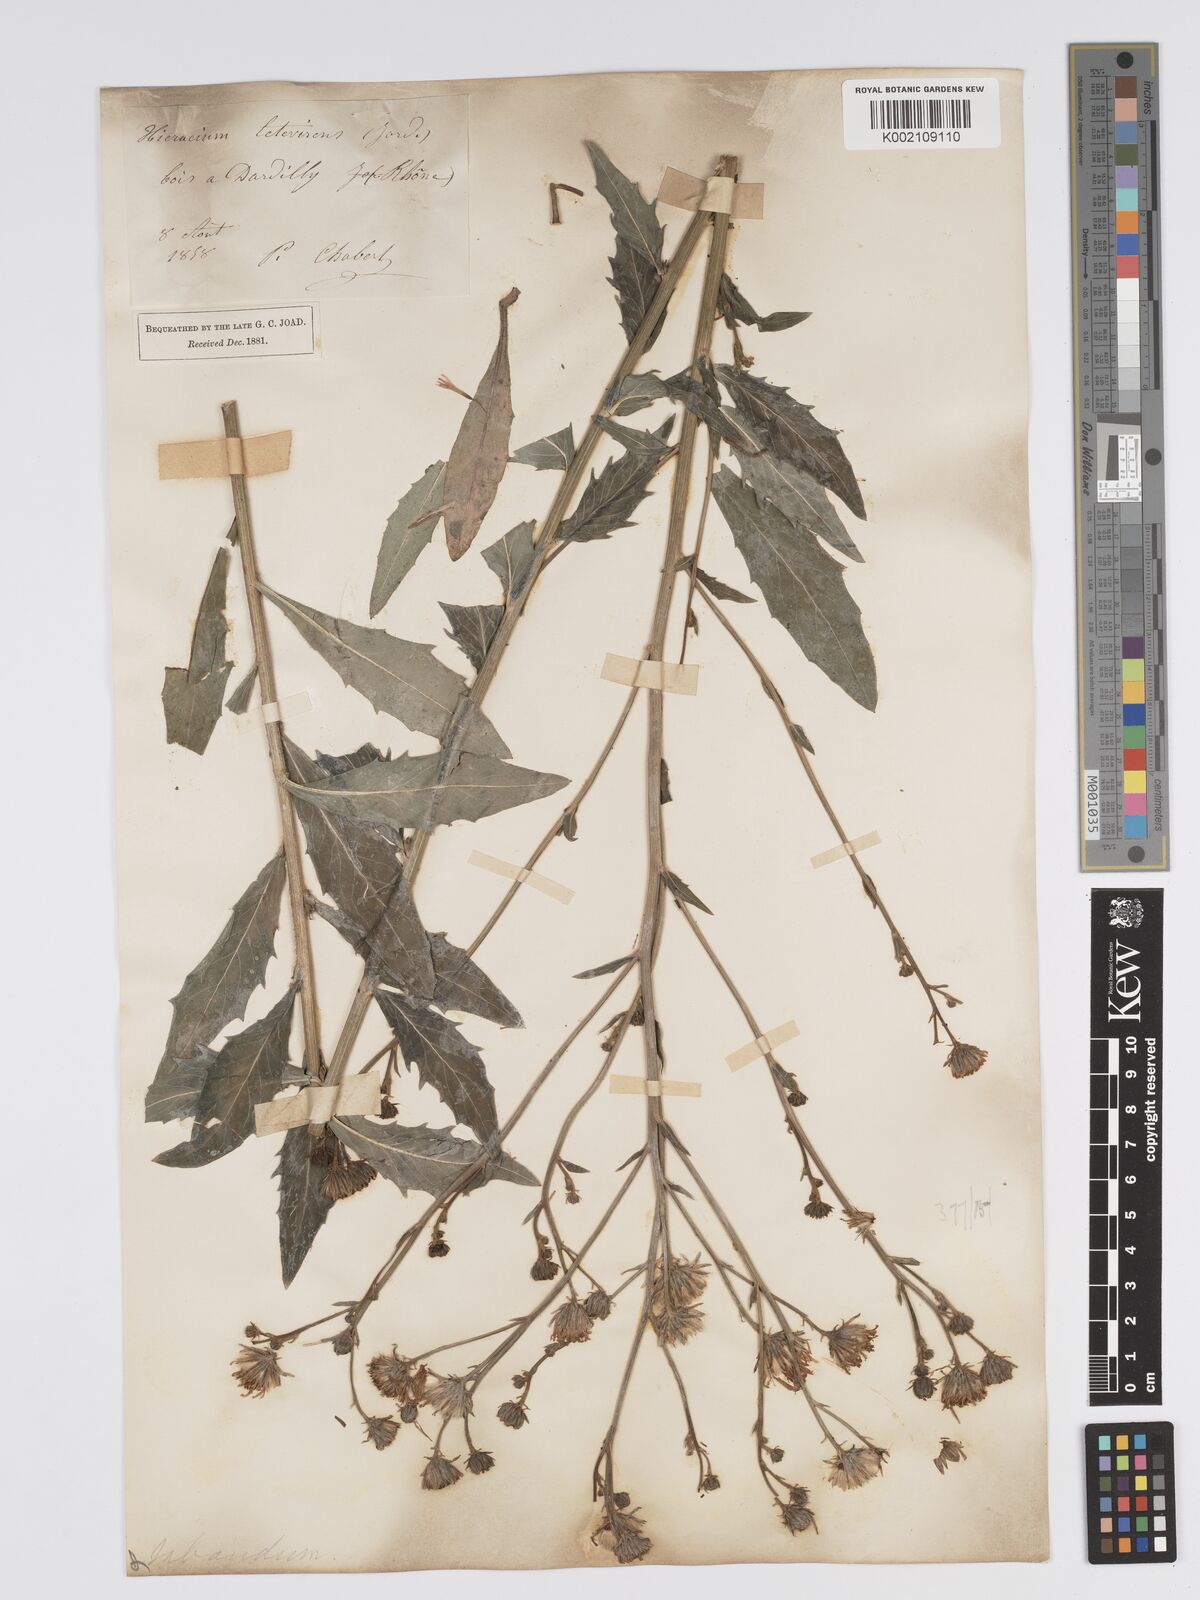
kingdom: Plantae
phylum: Tracheophyta
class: Magnoliopsida
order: Asterales
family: Asteraceae
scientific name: Asteraceae
